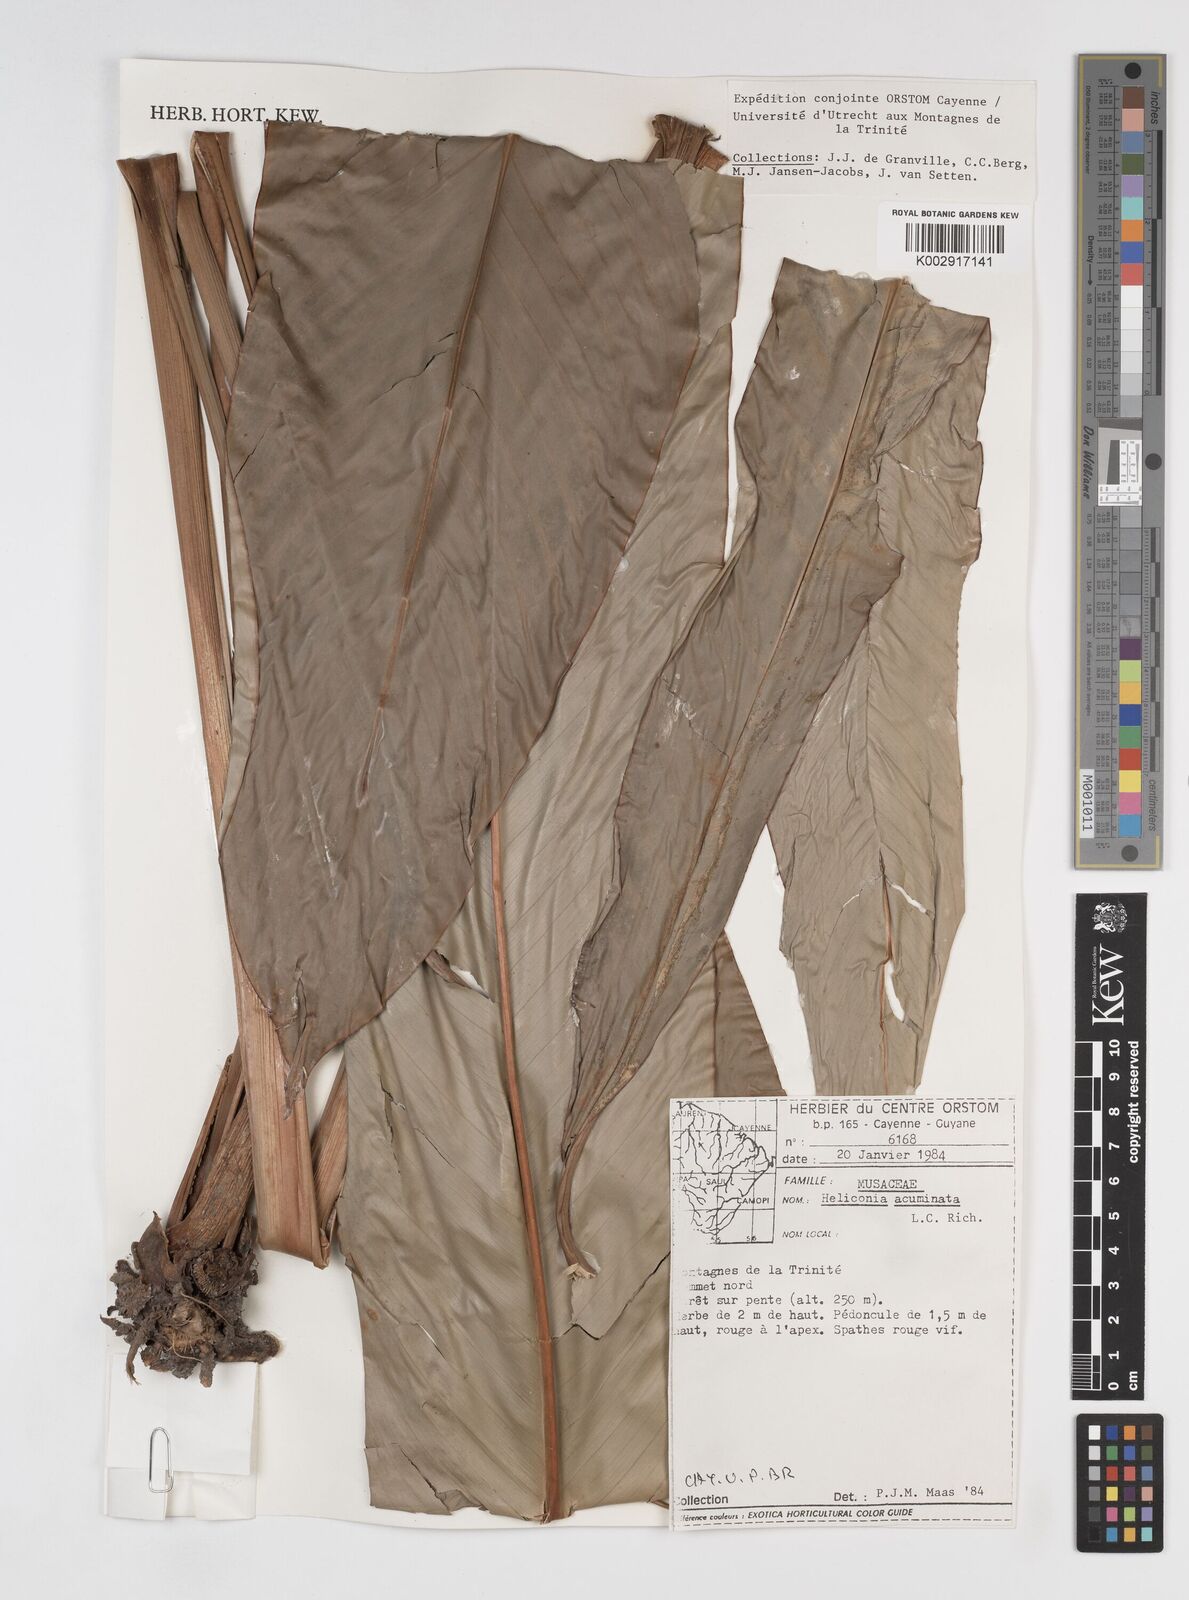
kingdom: Plantae
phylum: Tracheophyta
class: Liliopsida
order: Zingiberales
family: Heliconiaceae
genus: Heliconia
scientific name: Heliconia acuminata
